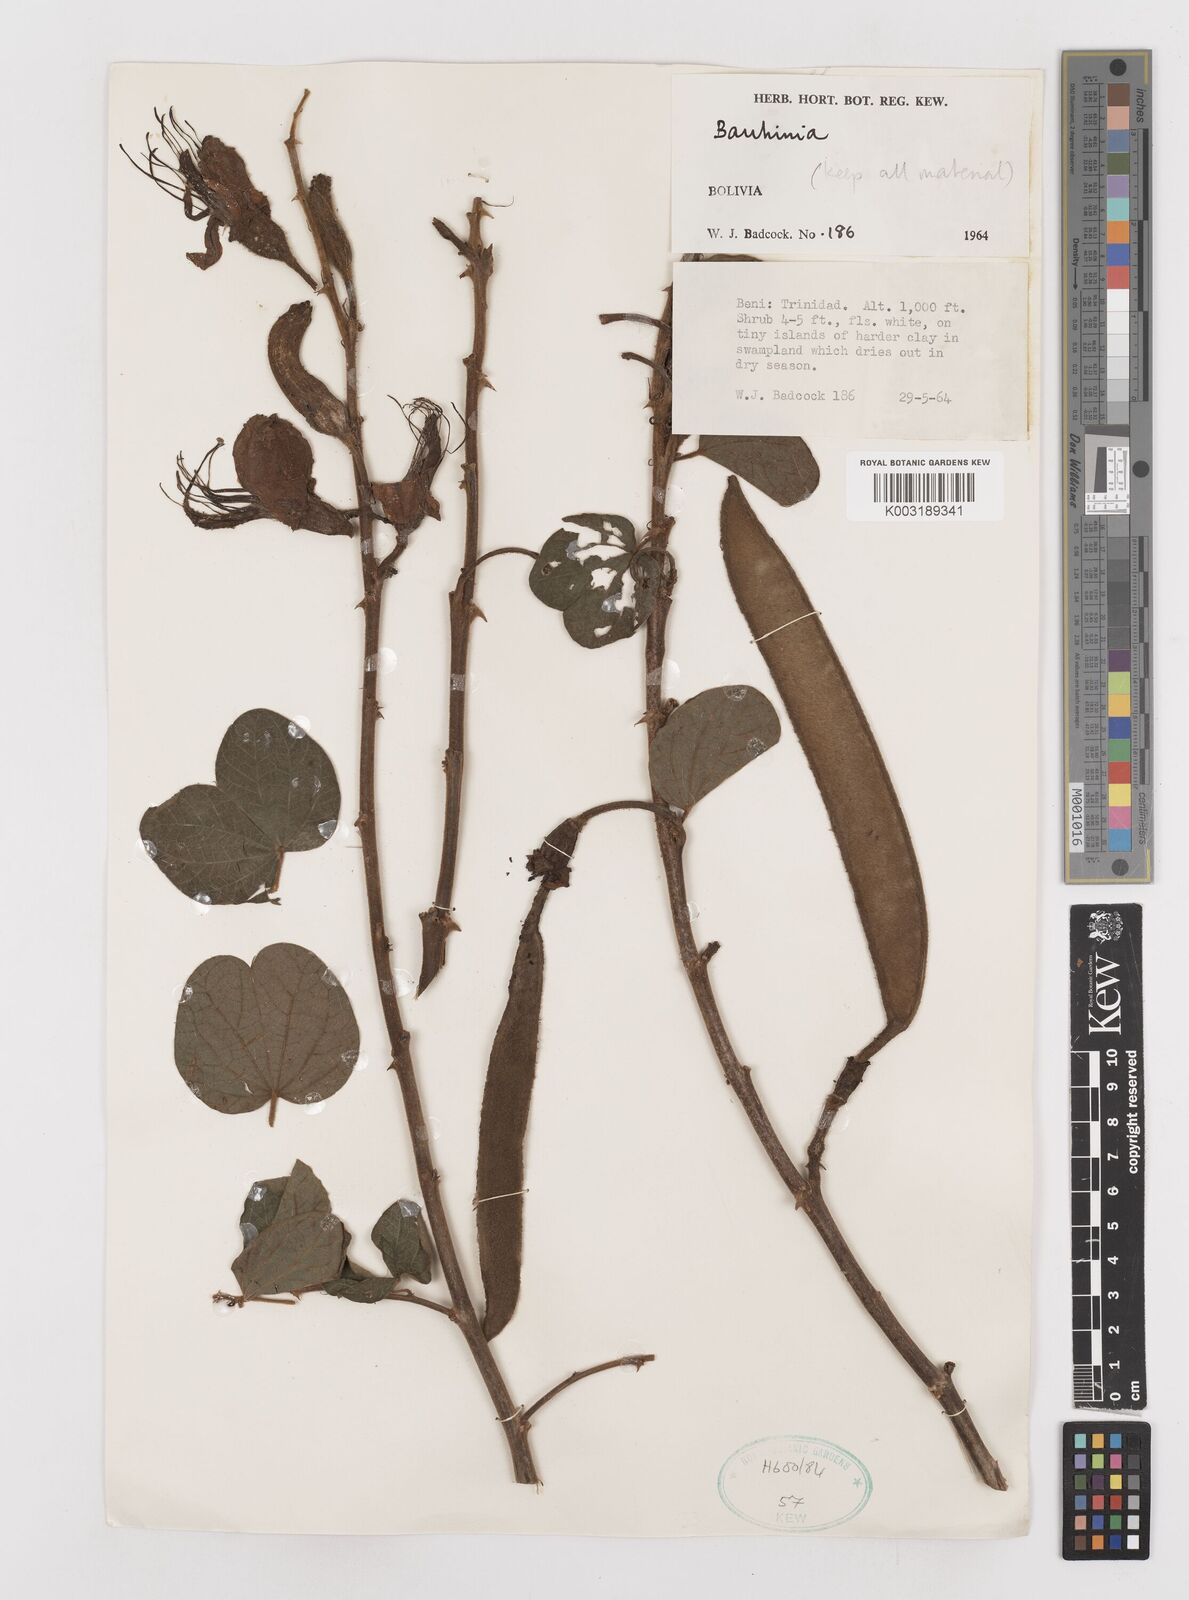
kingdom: Plantae
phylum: Tracheophyta
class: Magnoliopsida
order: Fabales
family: Fabaceae
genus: Bauhinia
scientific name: Bauhinia
